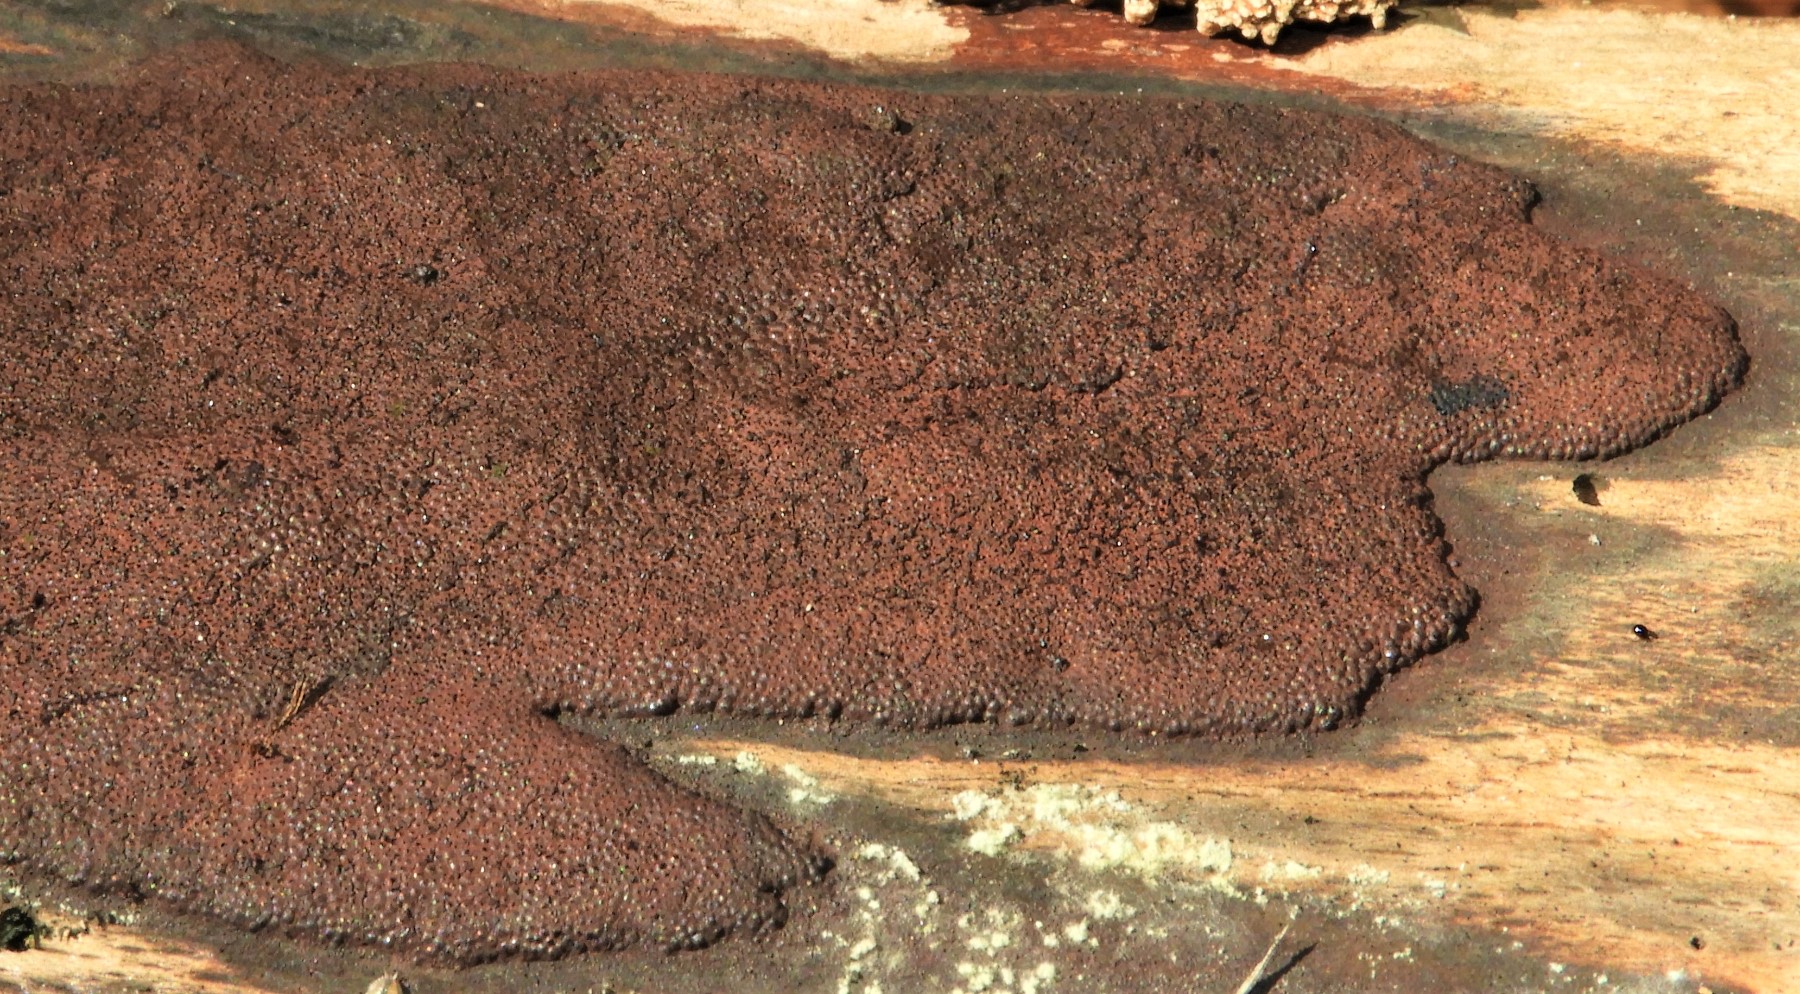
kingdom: Fungi
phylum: Ascomycota
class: Sordariomycetes
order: Xylariales
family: Hypoxylaceae
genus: Hypoxylon
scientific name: Hypoxylon
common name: kulbær
